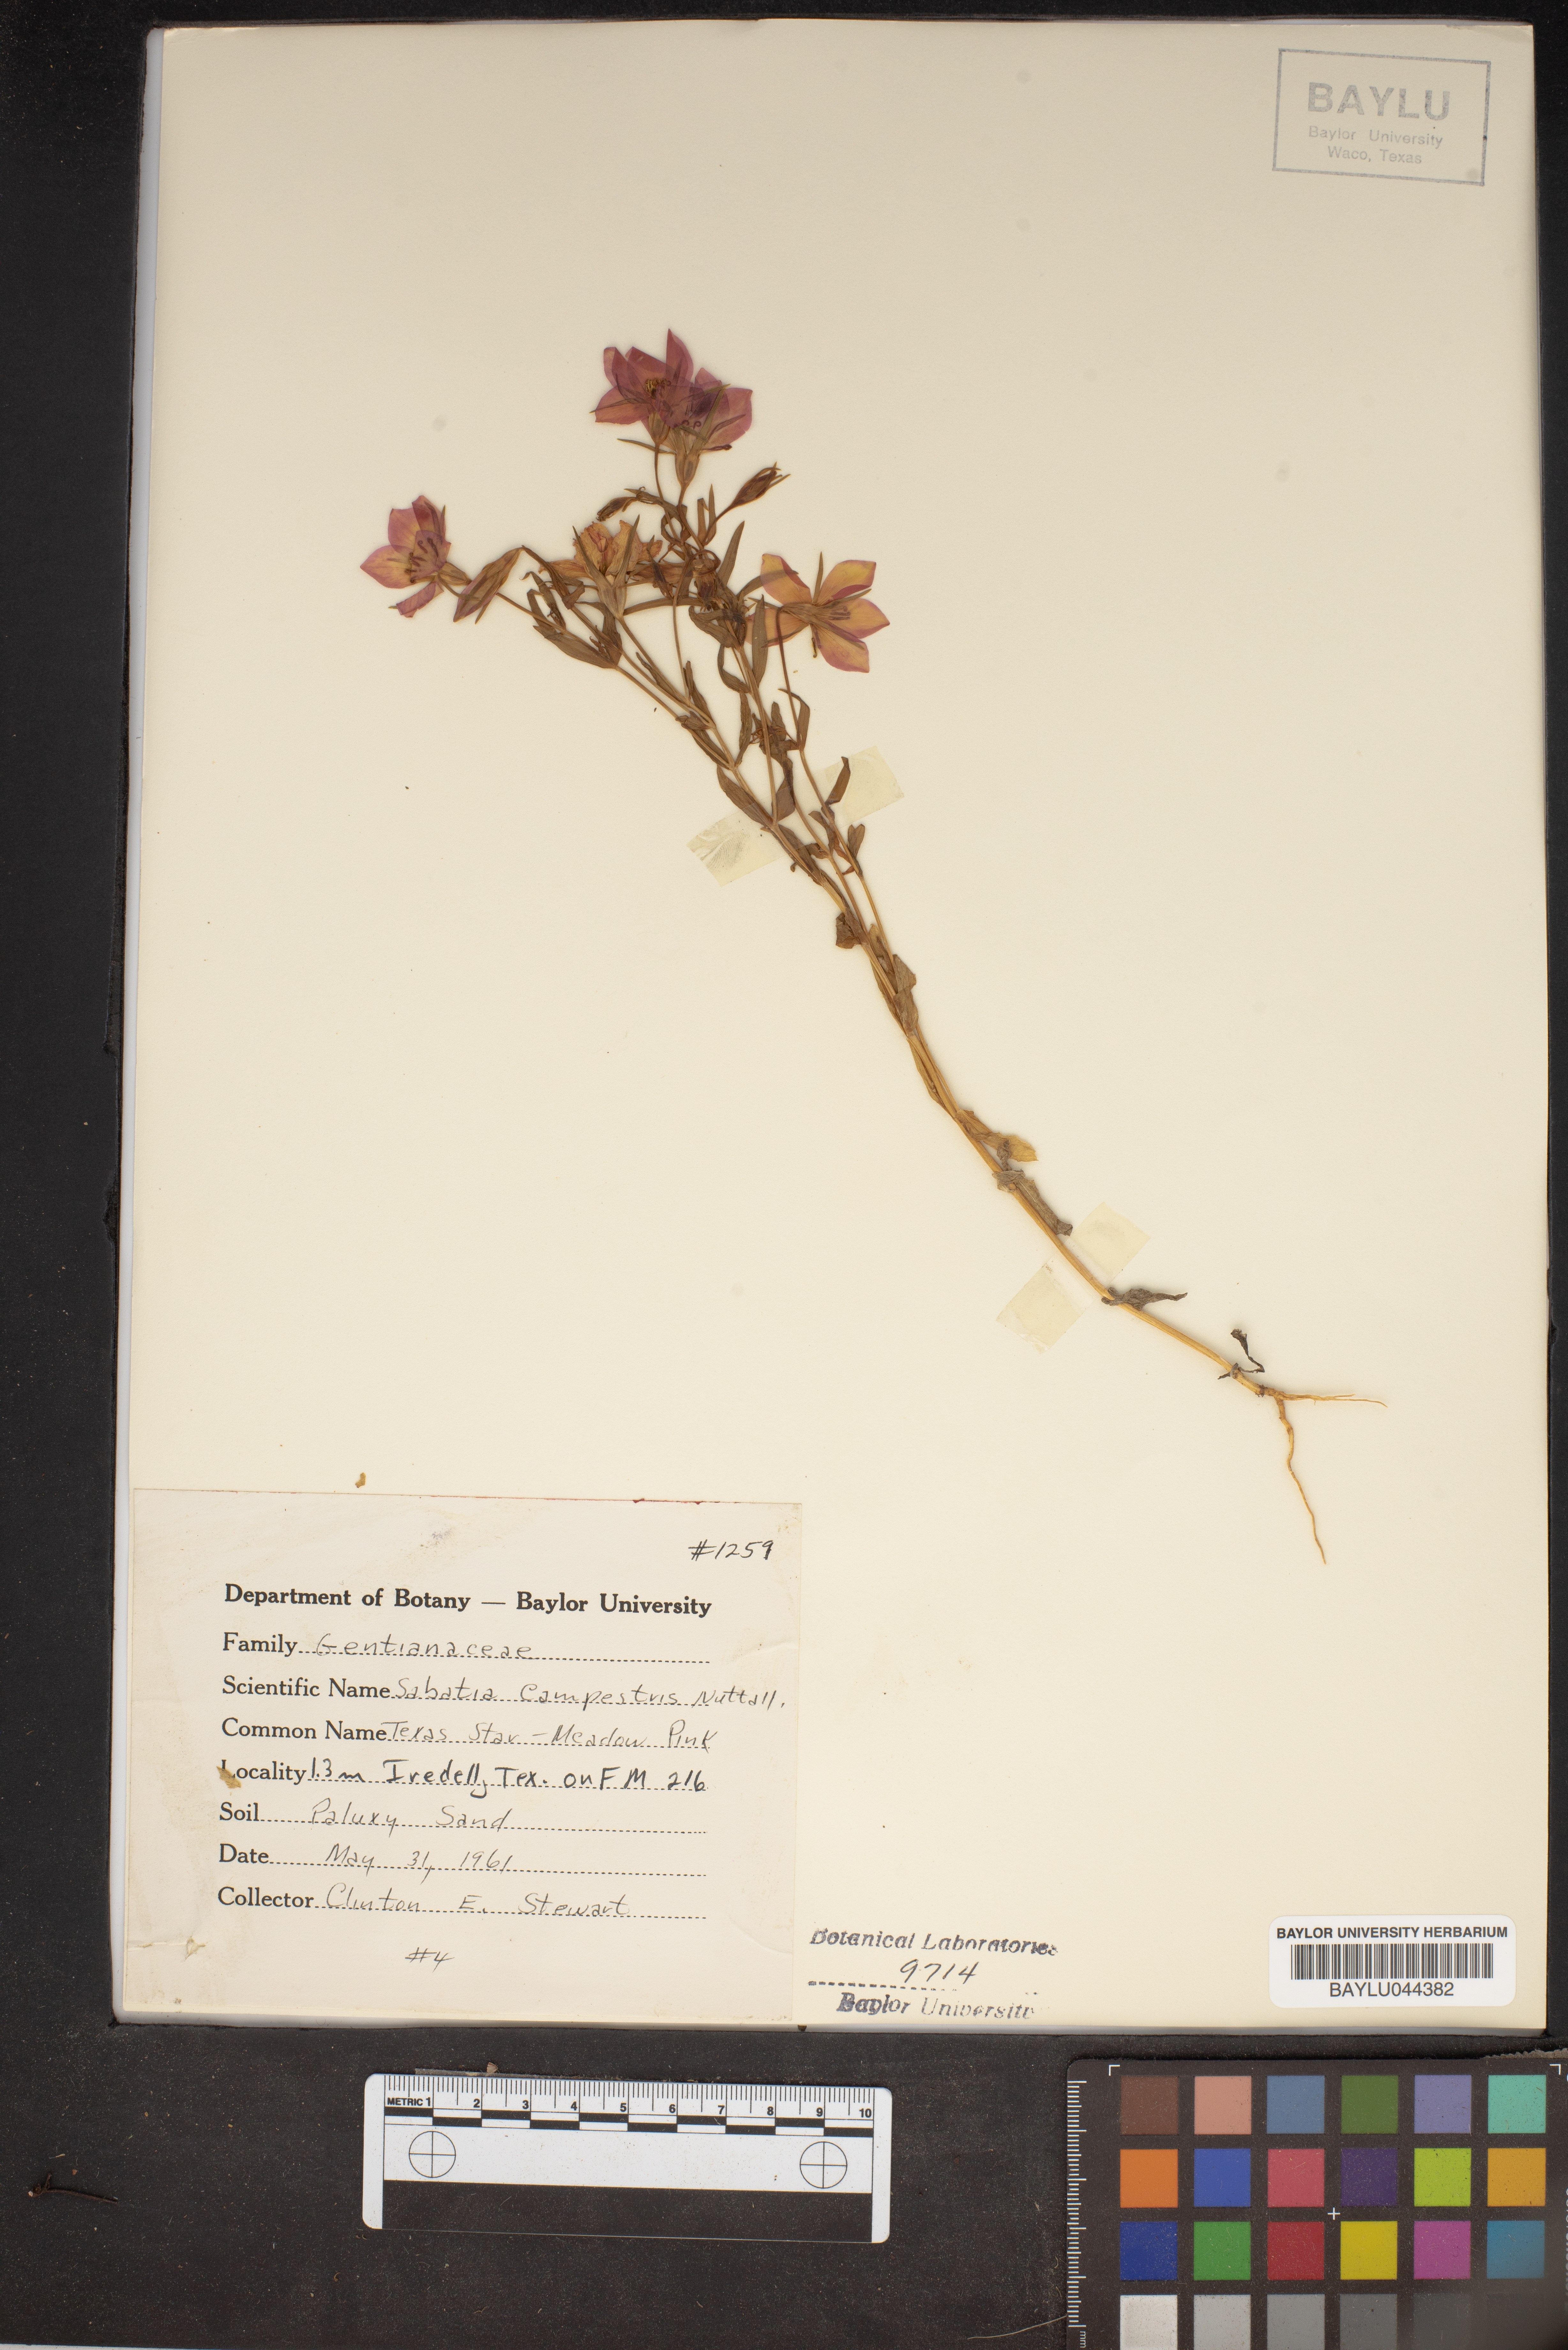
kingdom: Plantae
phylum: Tracheophyta
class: Magnoliopsida
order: Gentianales
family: Gentianaceae
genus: Sabatia
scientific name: Sabatia campestris
